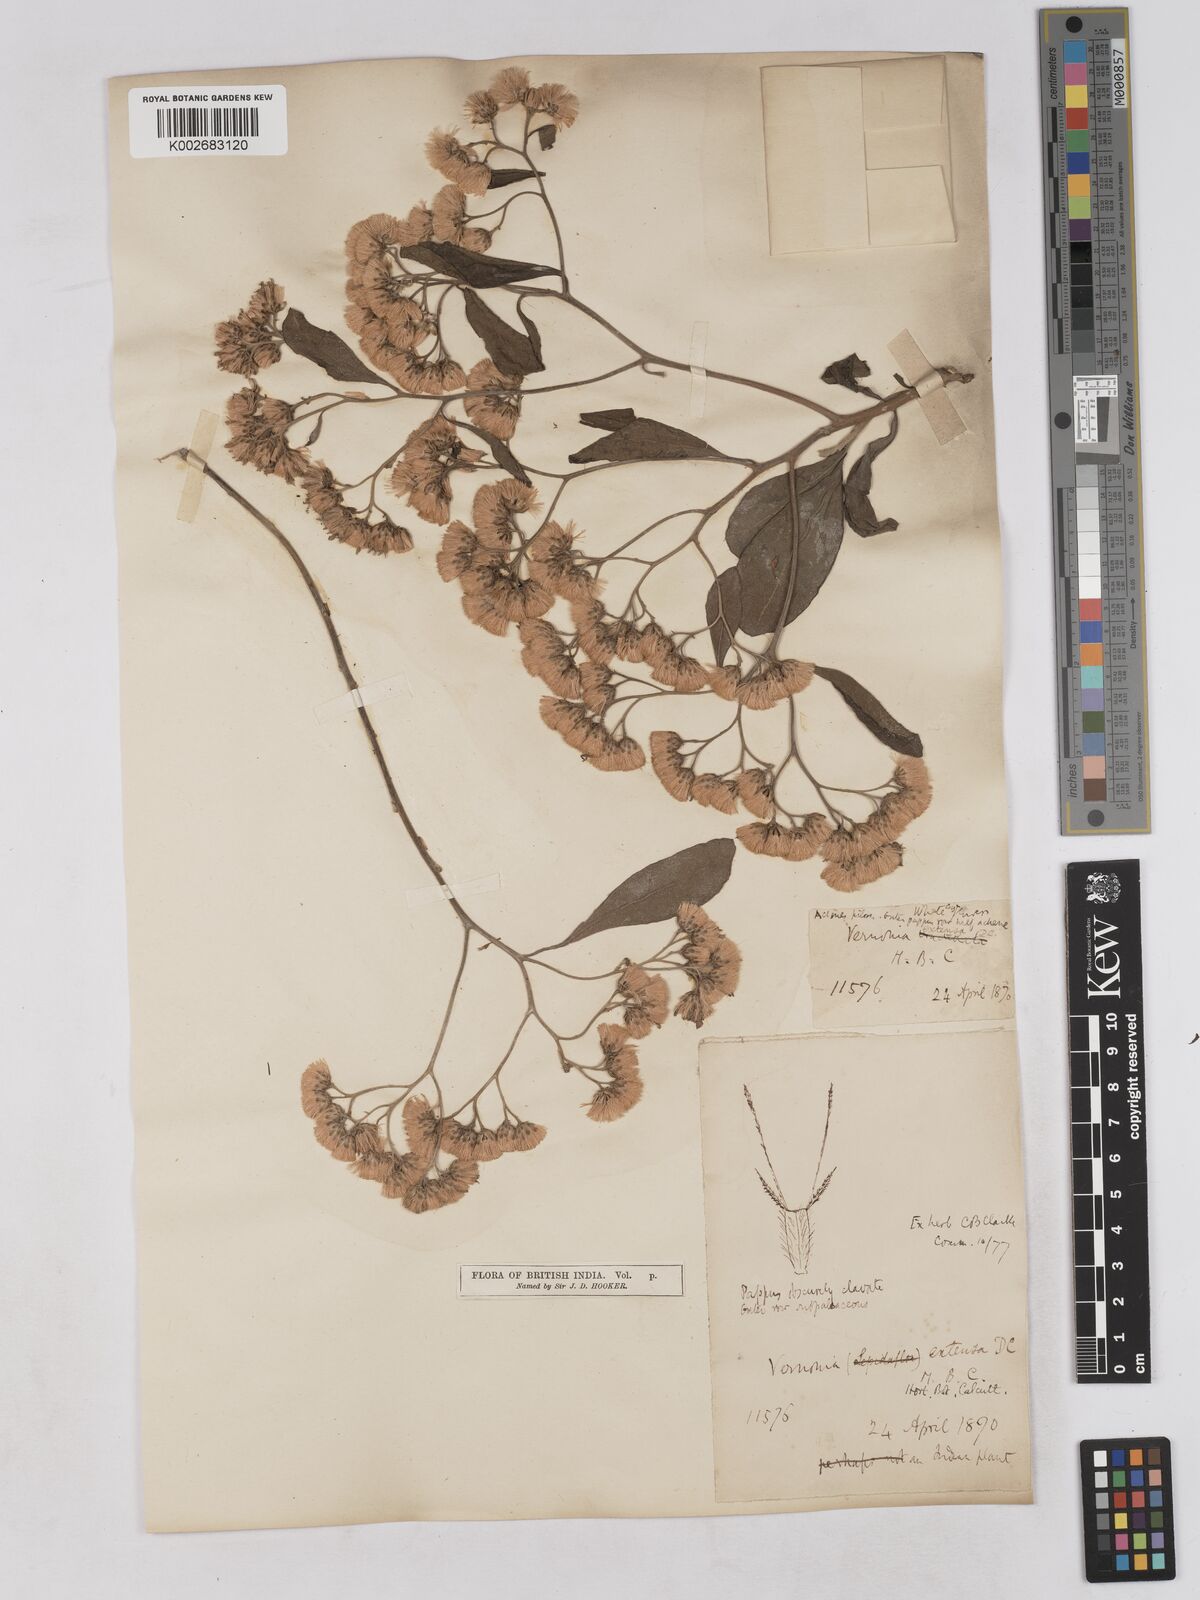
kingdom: Plantae
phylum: Tracheophyta
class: Magnoliopsida
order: Asterales
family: Asteraceae
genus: Gymnanthemum
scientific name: Gymnanthemum extensum
